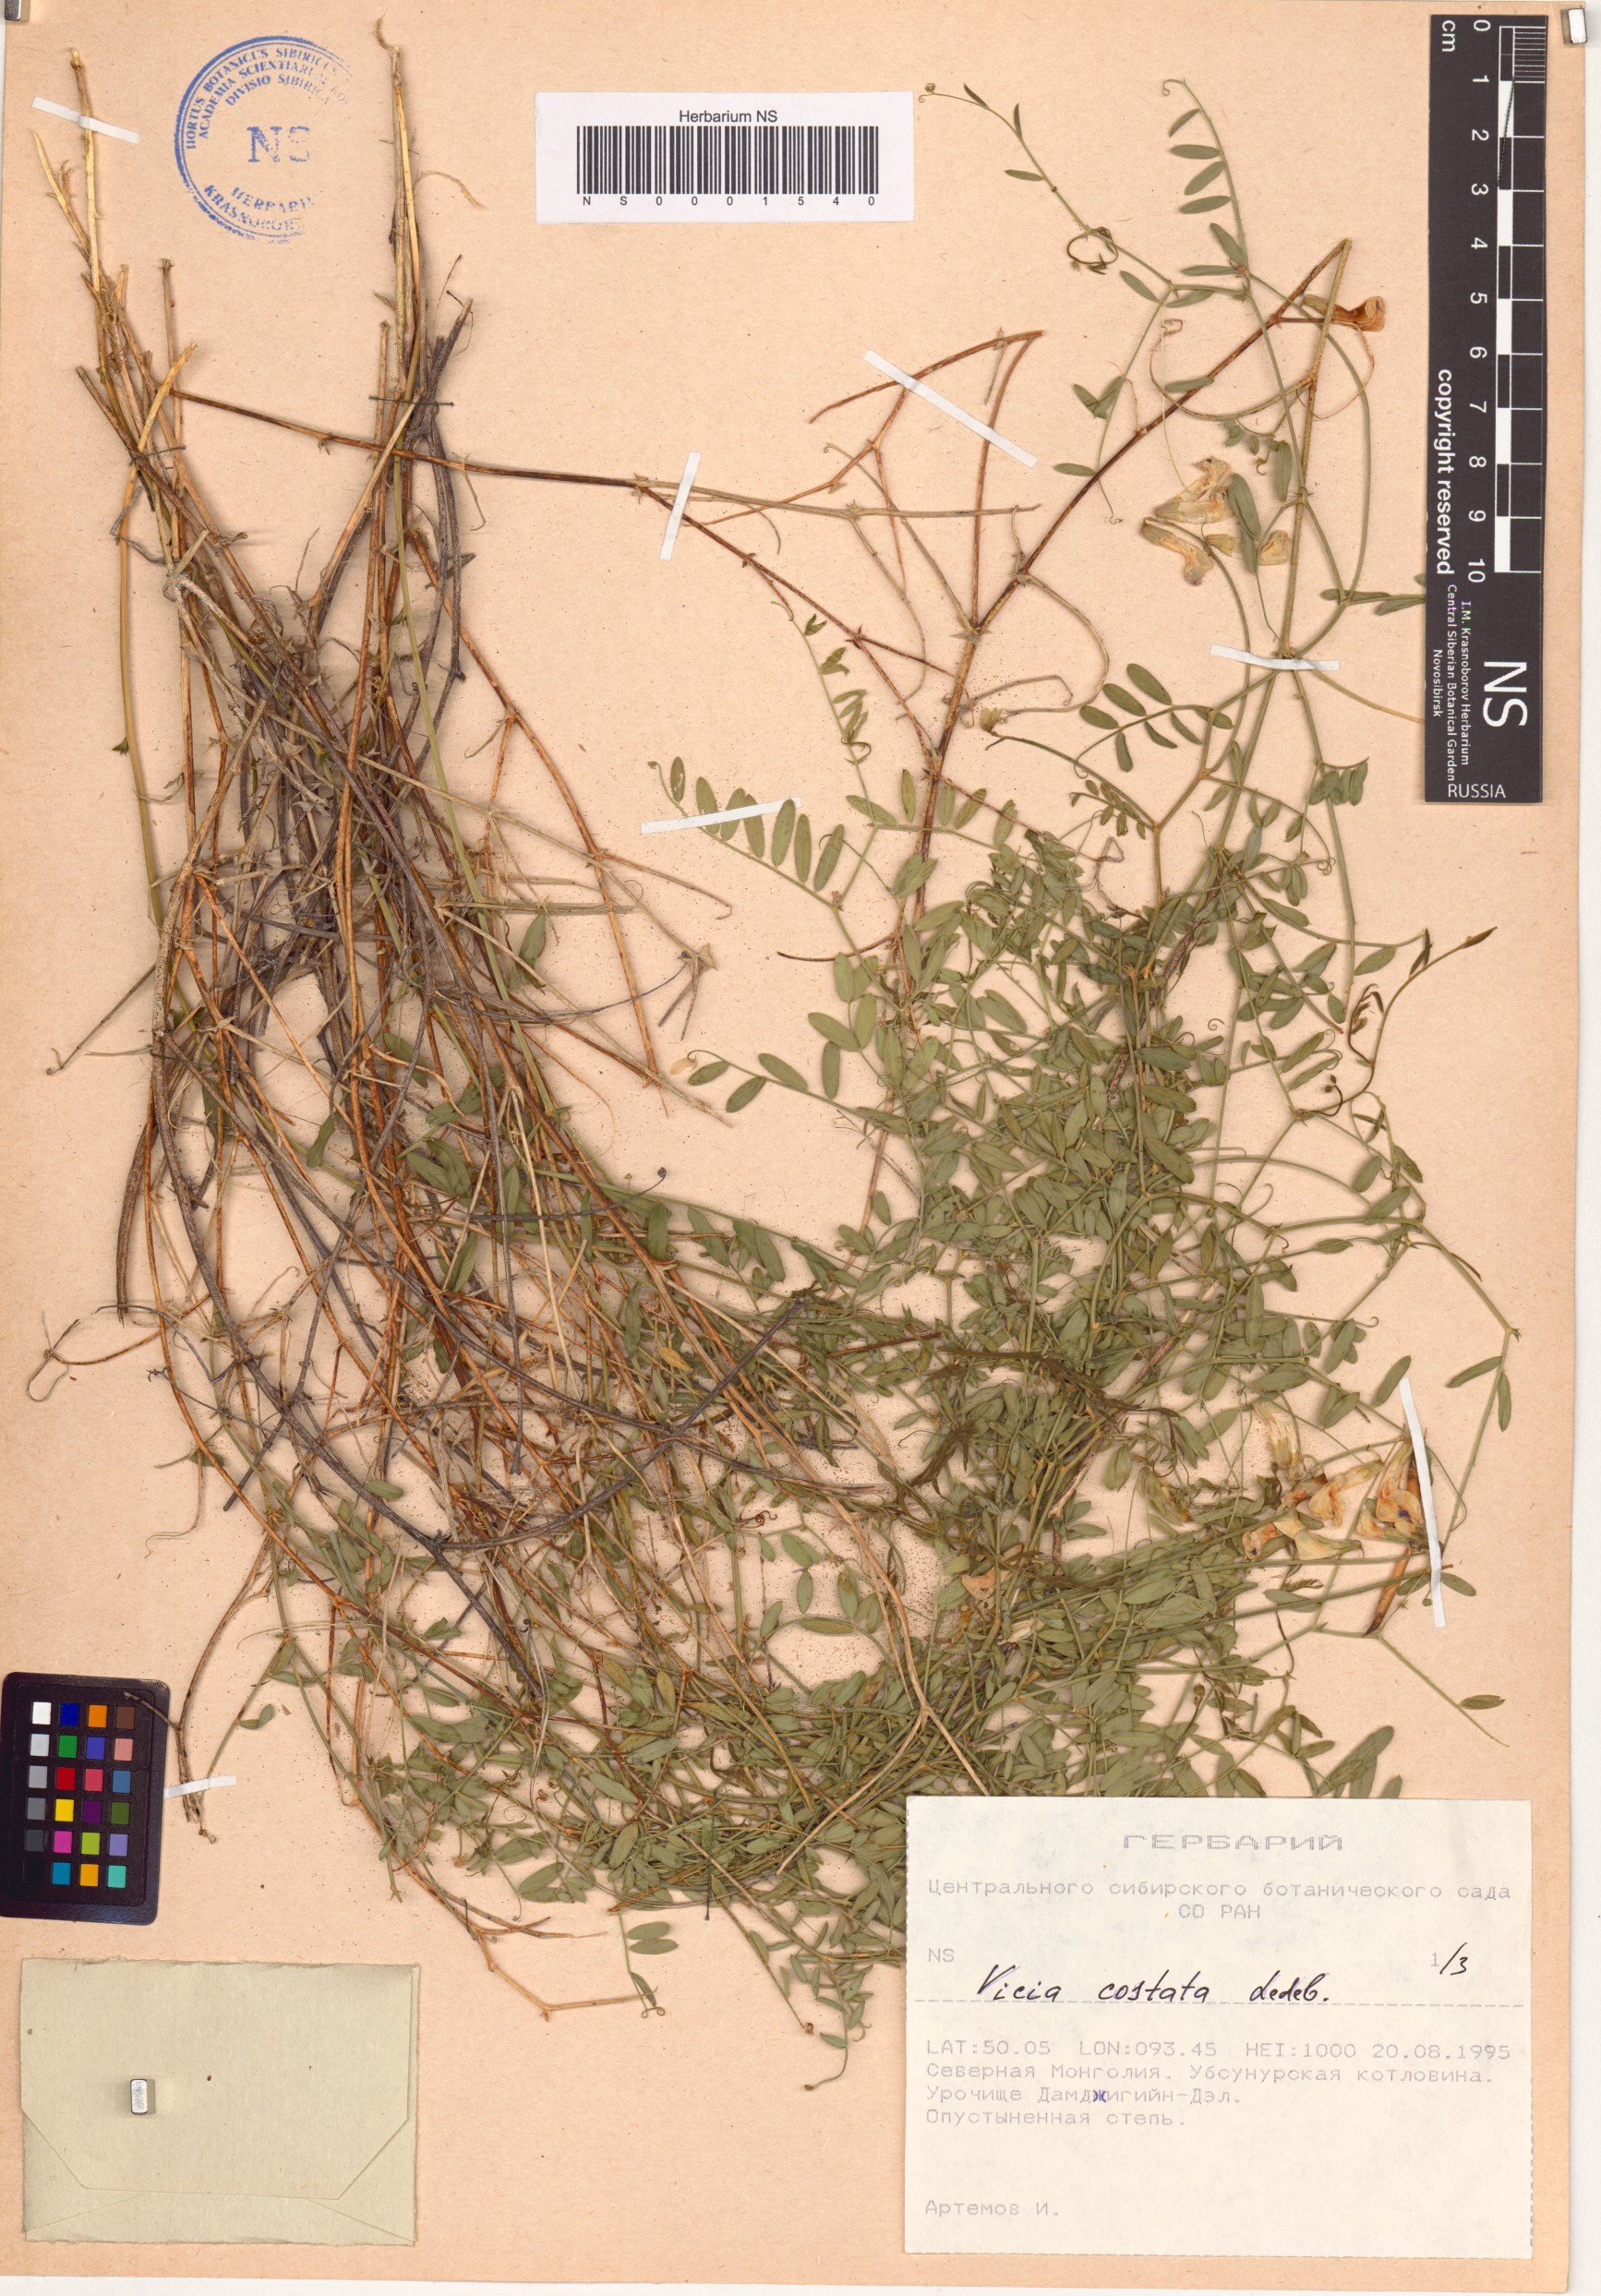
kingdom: Plantae
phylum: Tracheophyta
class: Magnoliopsida
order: Fabales
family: Fabaceae
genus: Vicia
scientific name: Vicia costata
